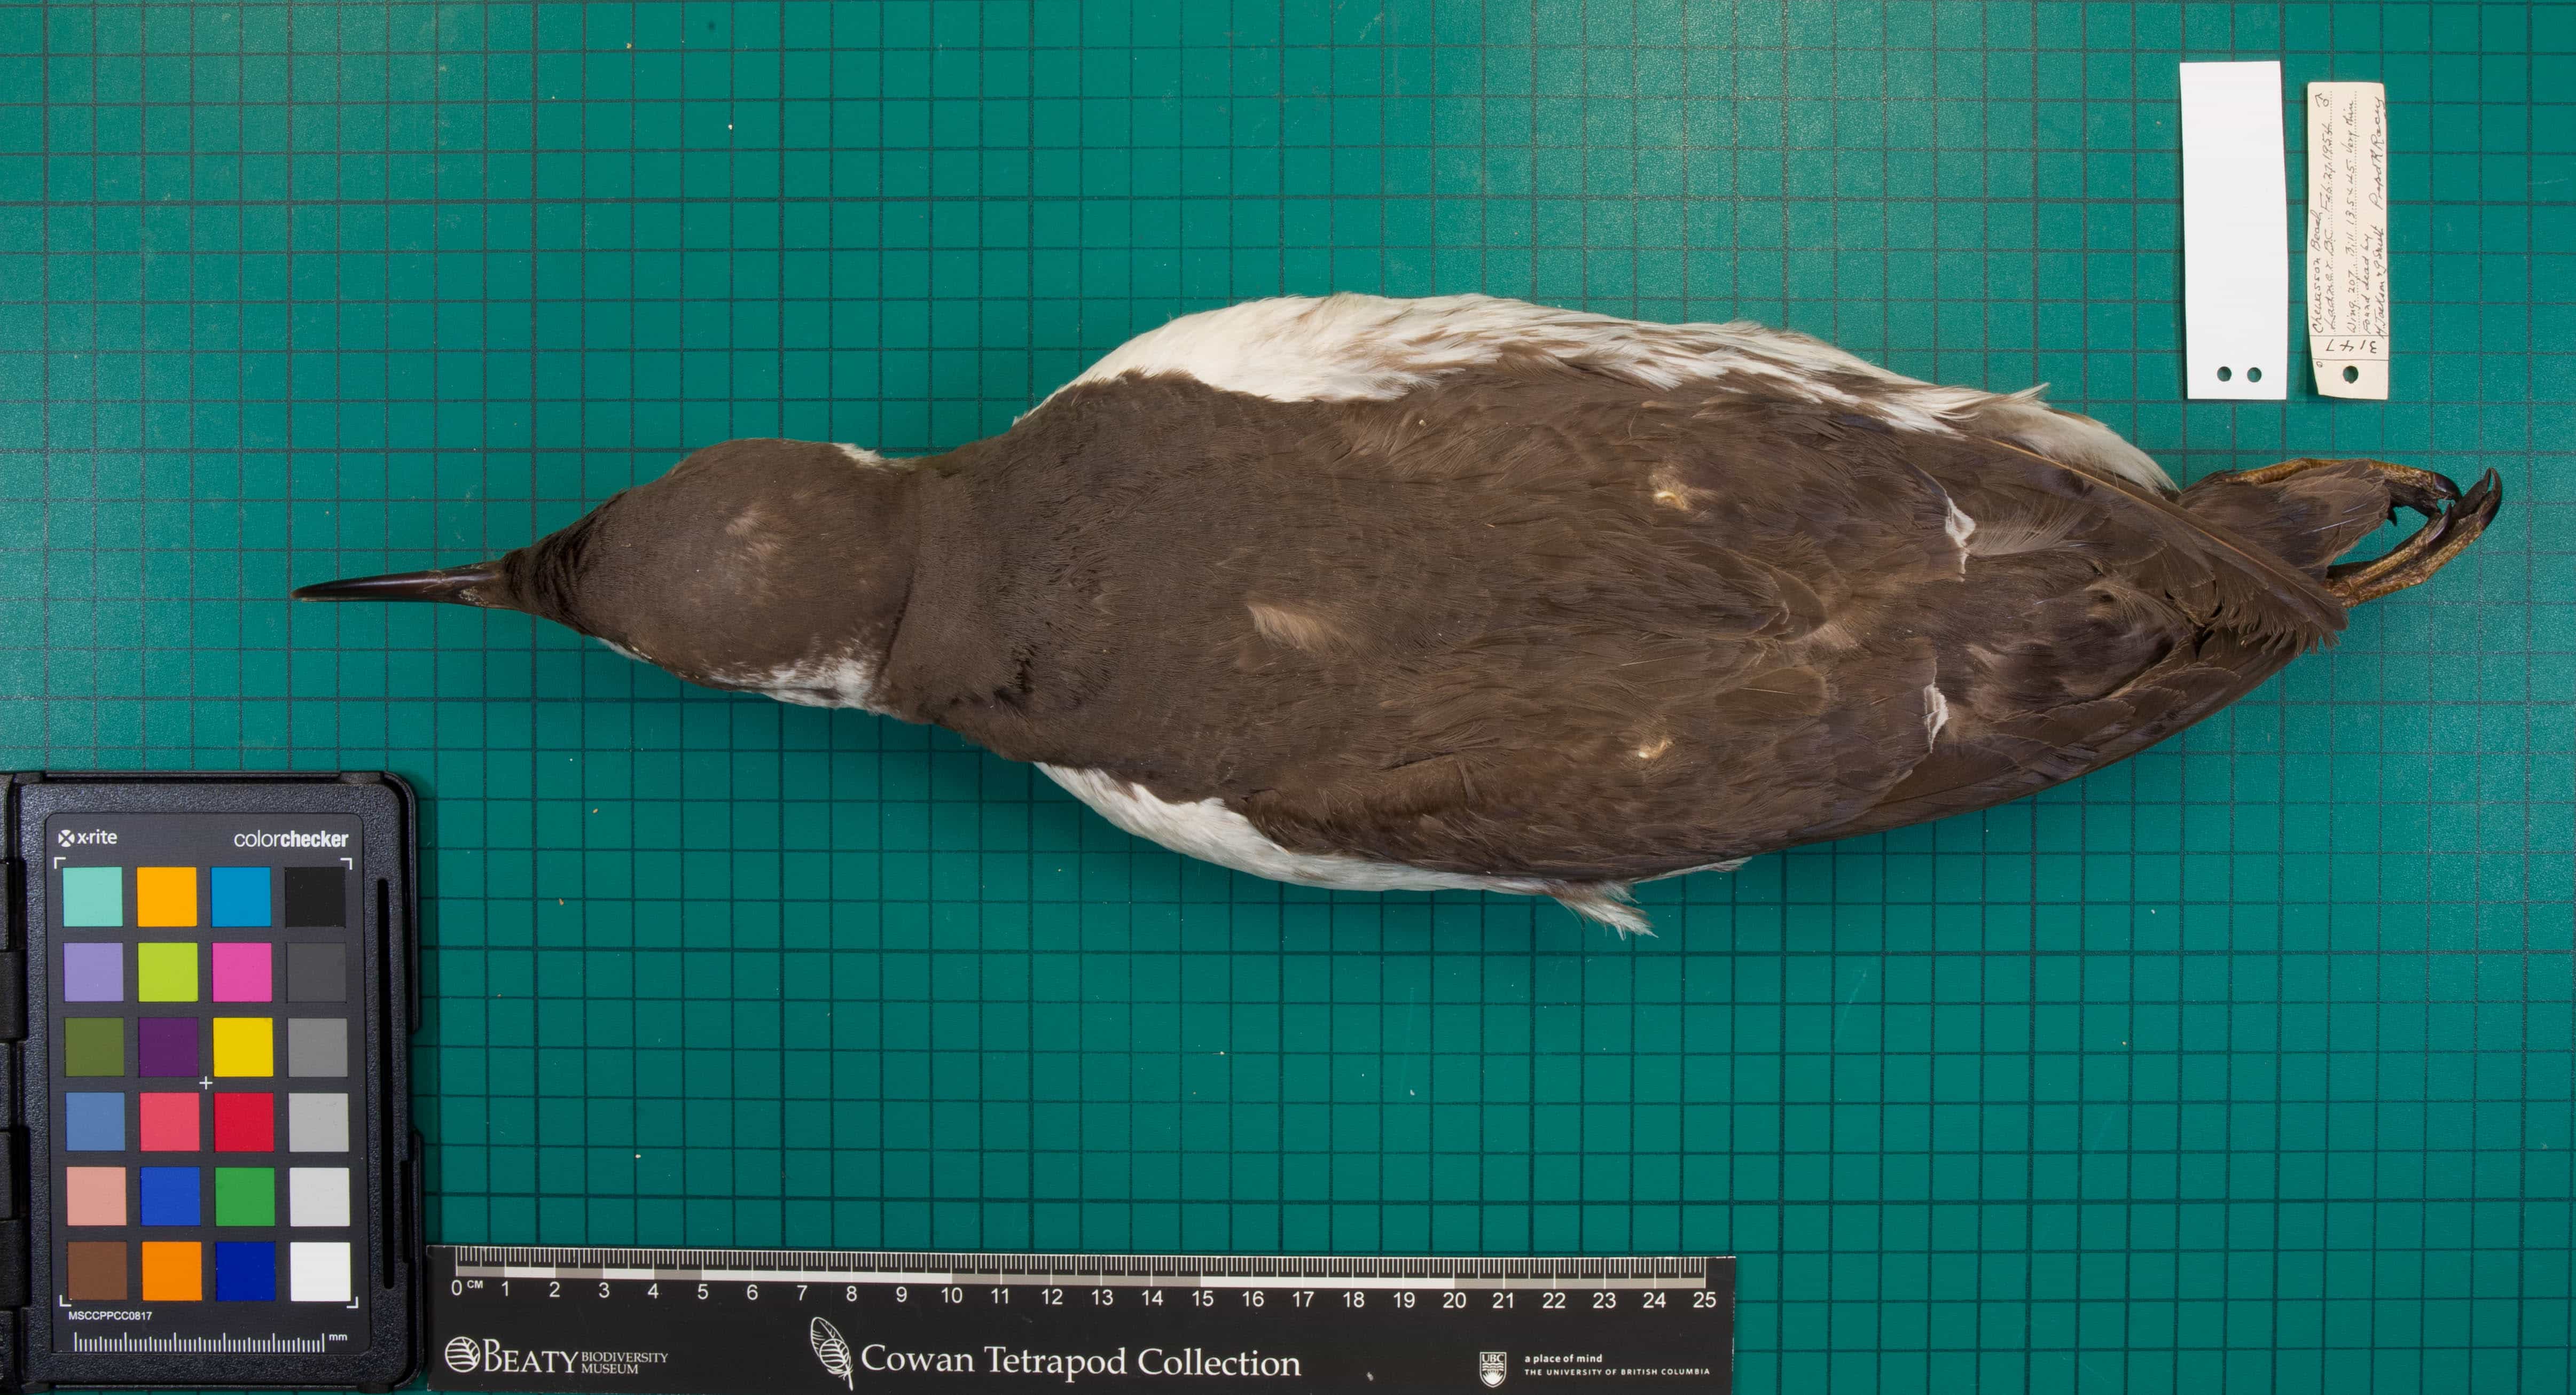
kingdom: Animalia
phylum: Chordata
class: Aves
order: Charadriiformes
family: Alcidae
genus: Uria
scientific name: Uria aalge
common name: Common Murre
